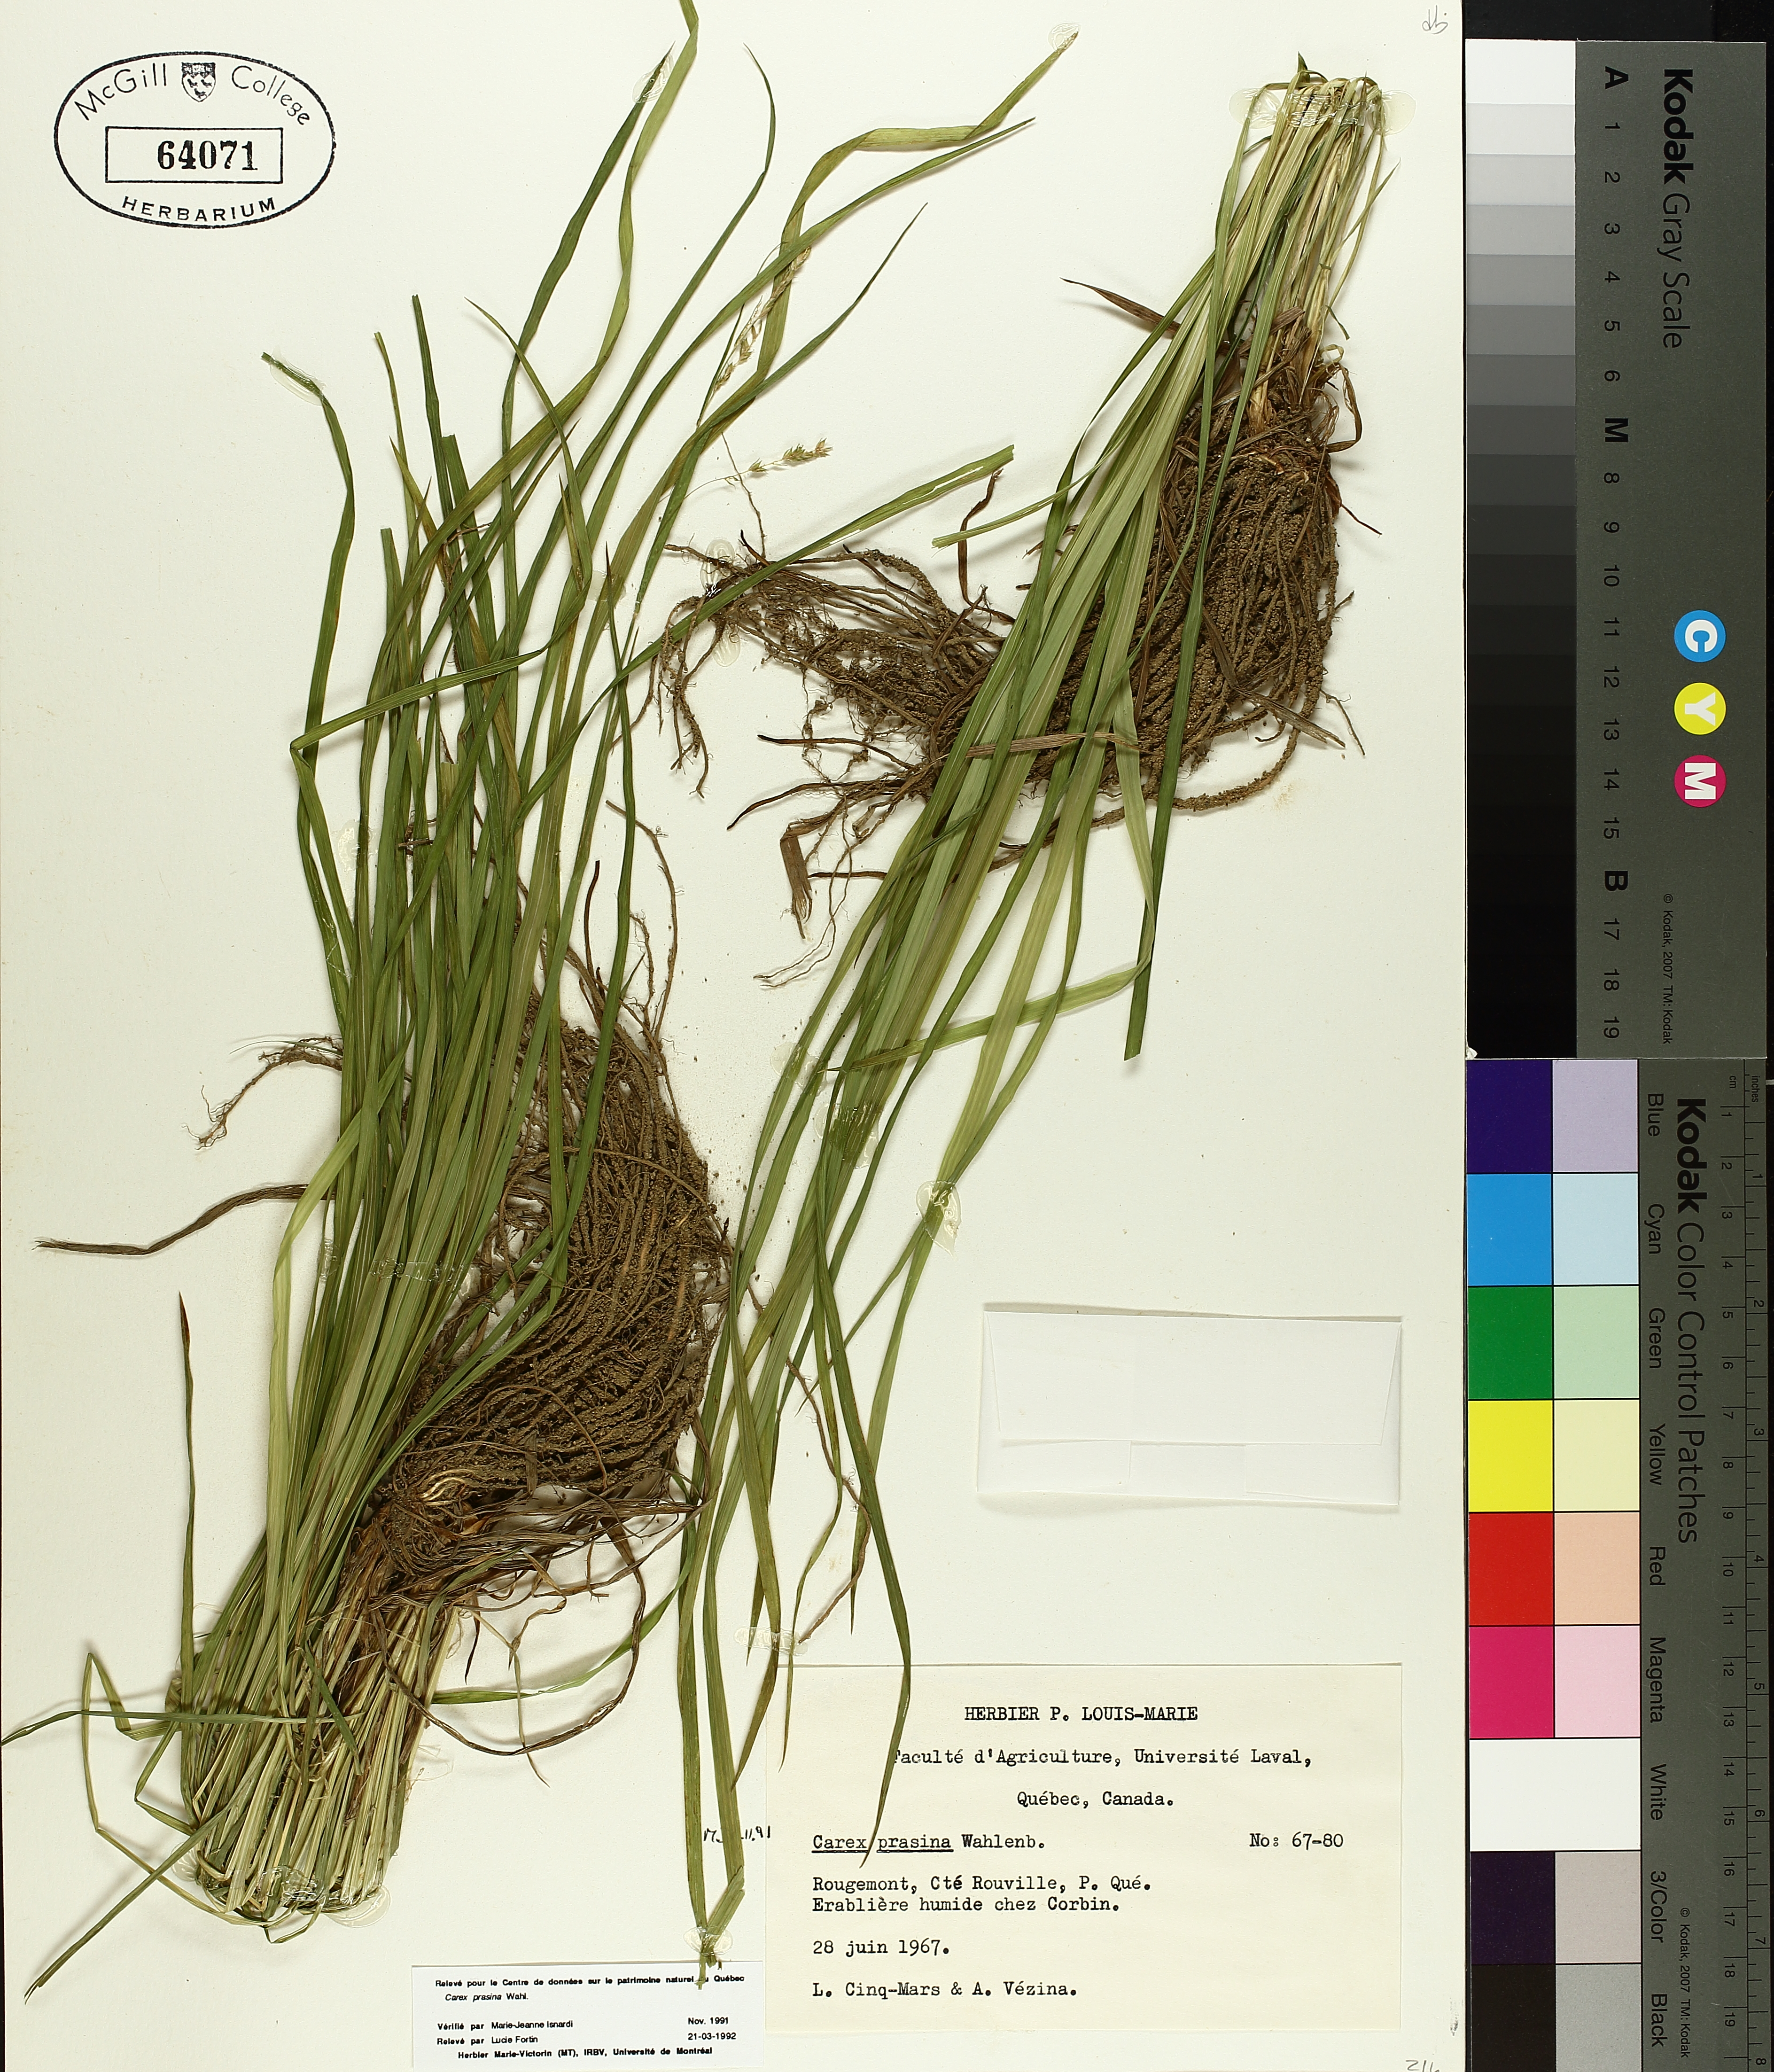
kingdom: Plantae
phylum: Tracheophyta
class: Liliopsida
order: Poales
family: Cyperaceae
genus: Carex
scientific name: Carex prasina
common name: Drooping sedge
